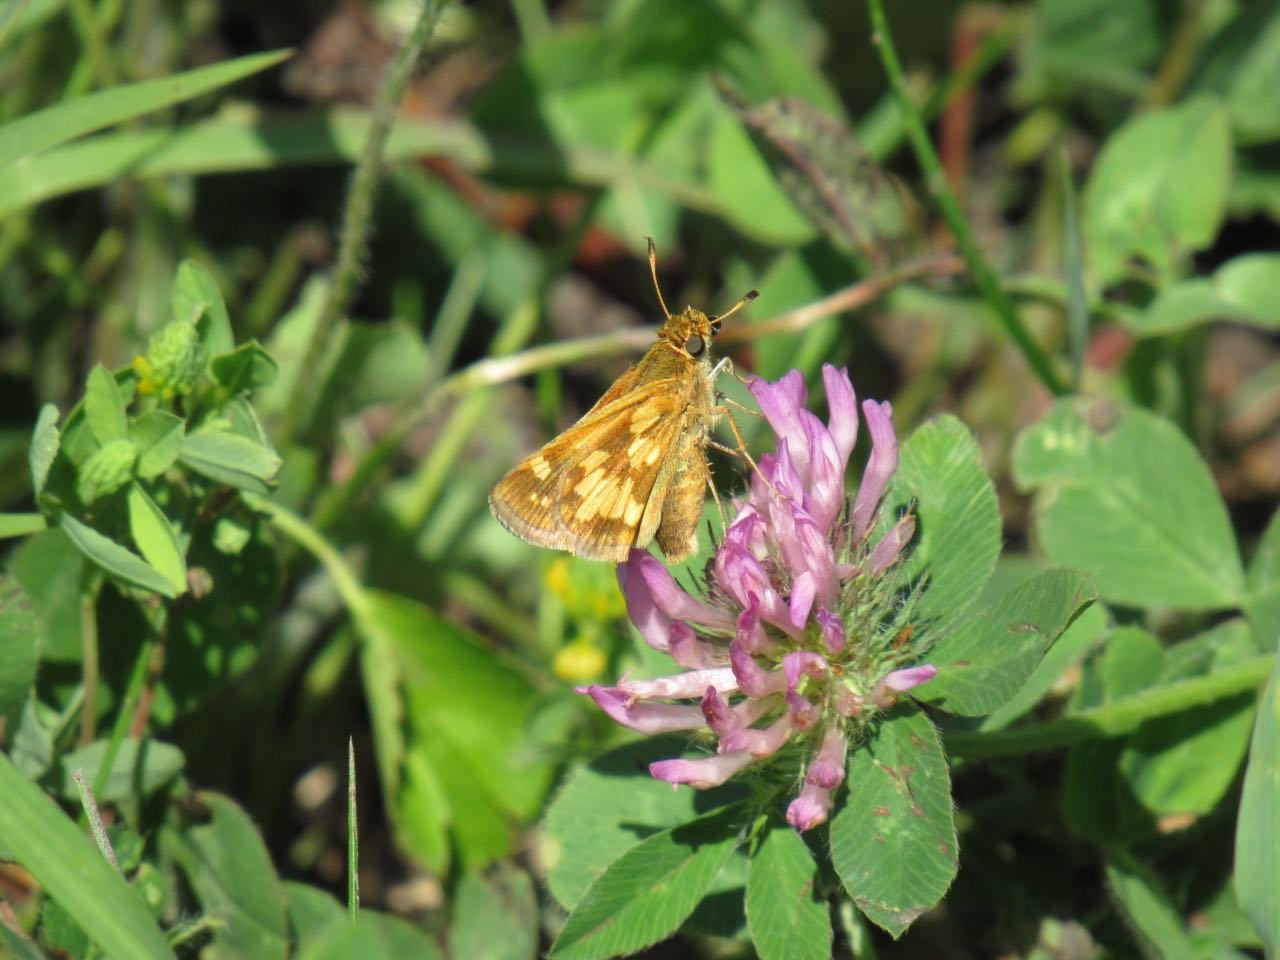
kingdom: Animalia
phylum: Arthropoda
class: Insecta
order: Lepidoptera
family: Hesperiidae
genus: Polites
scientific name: Polites coras
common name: Peck's Skipper
